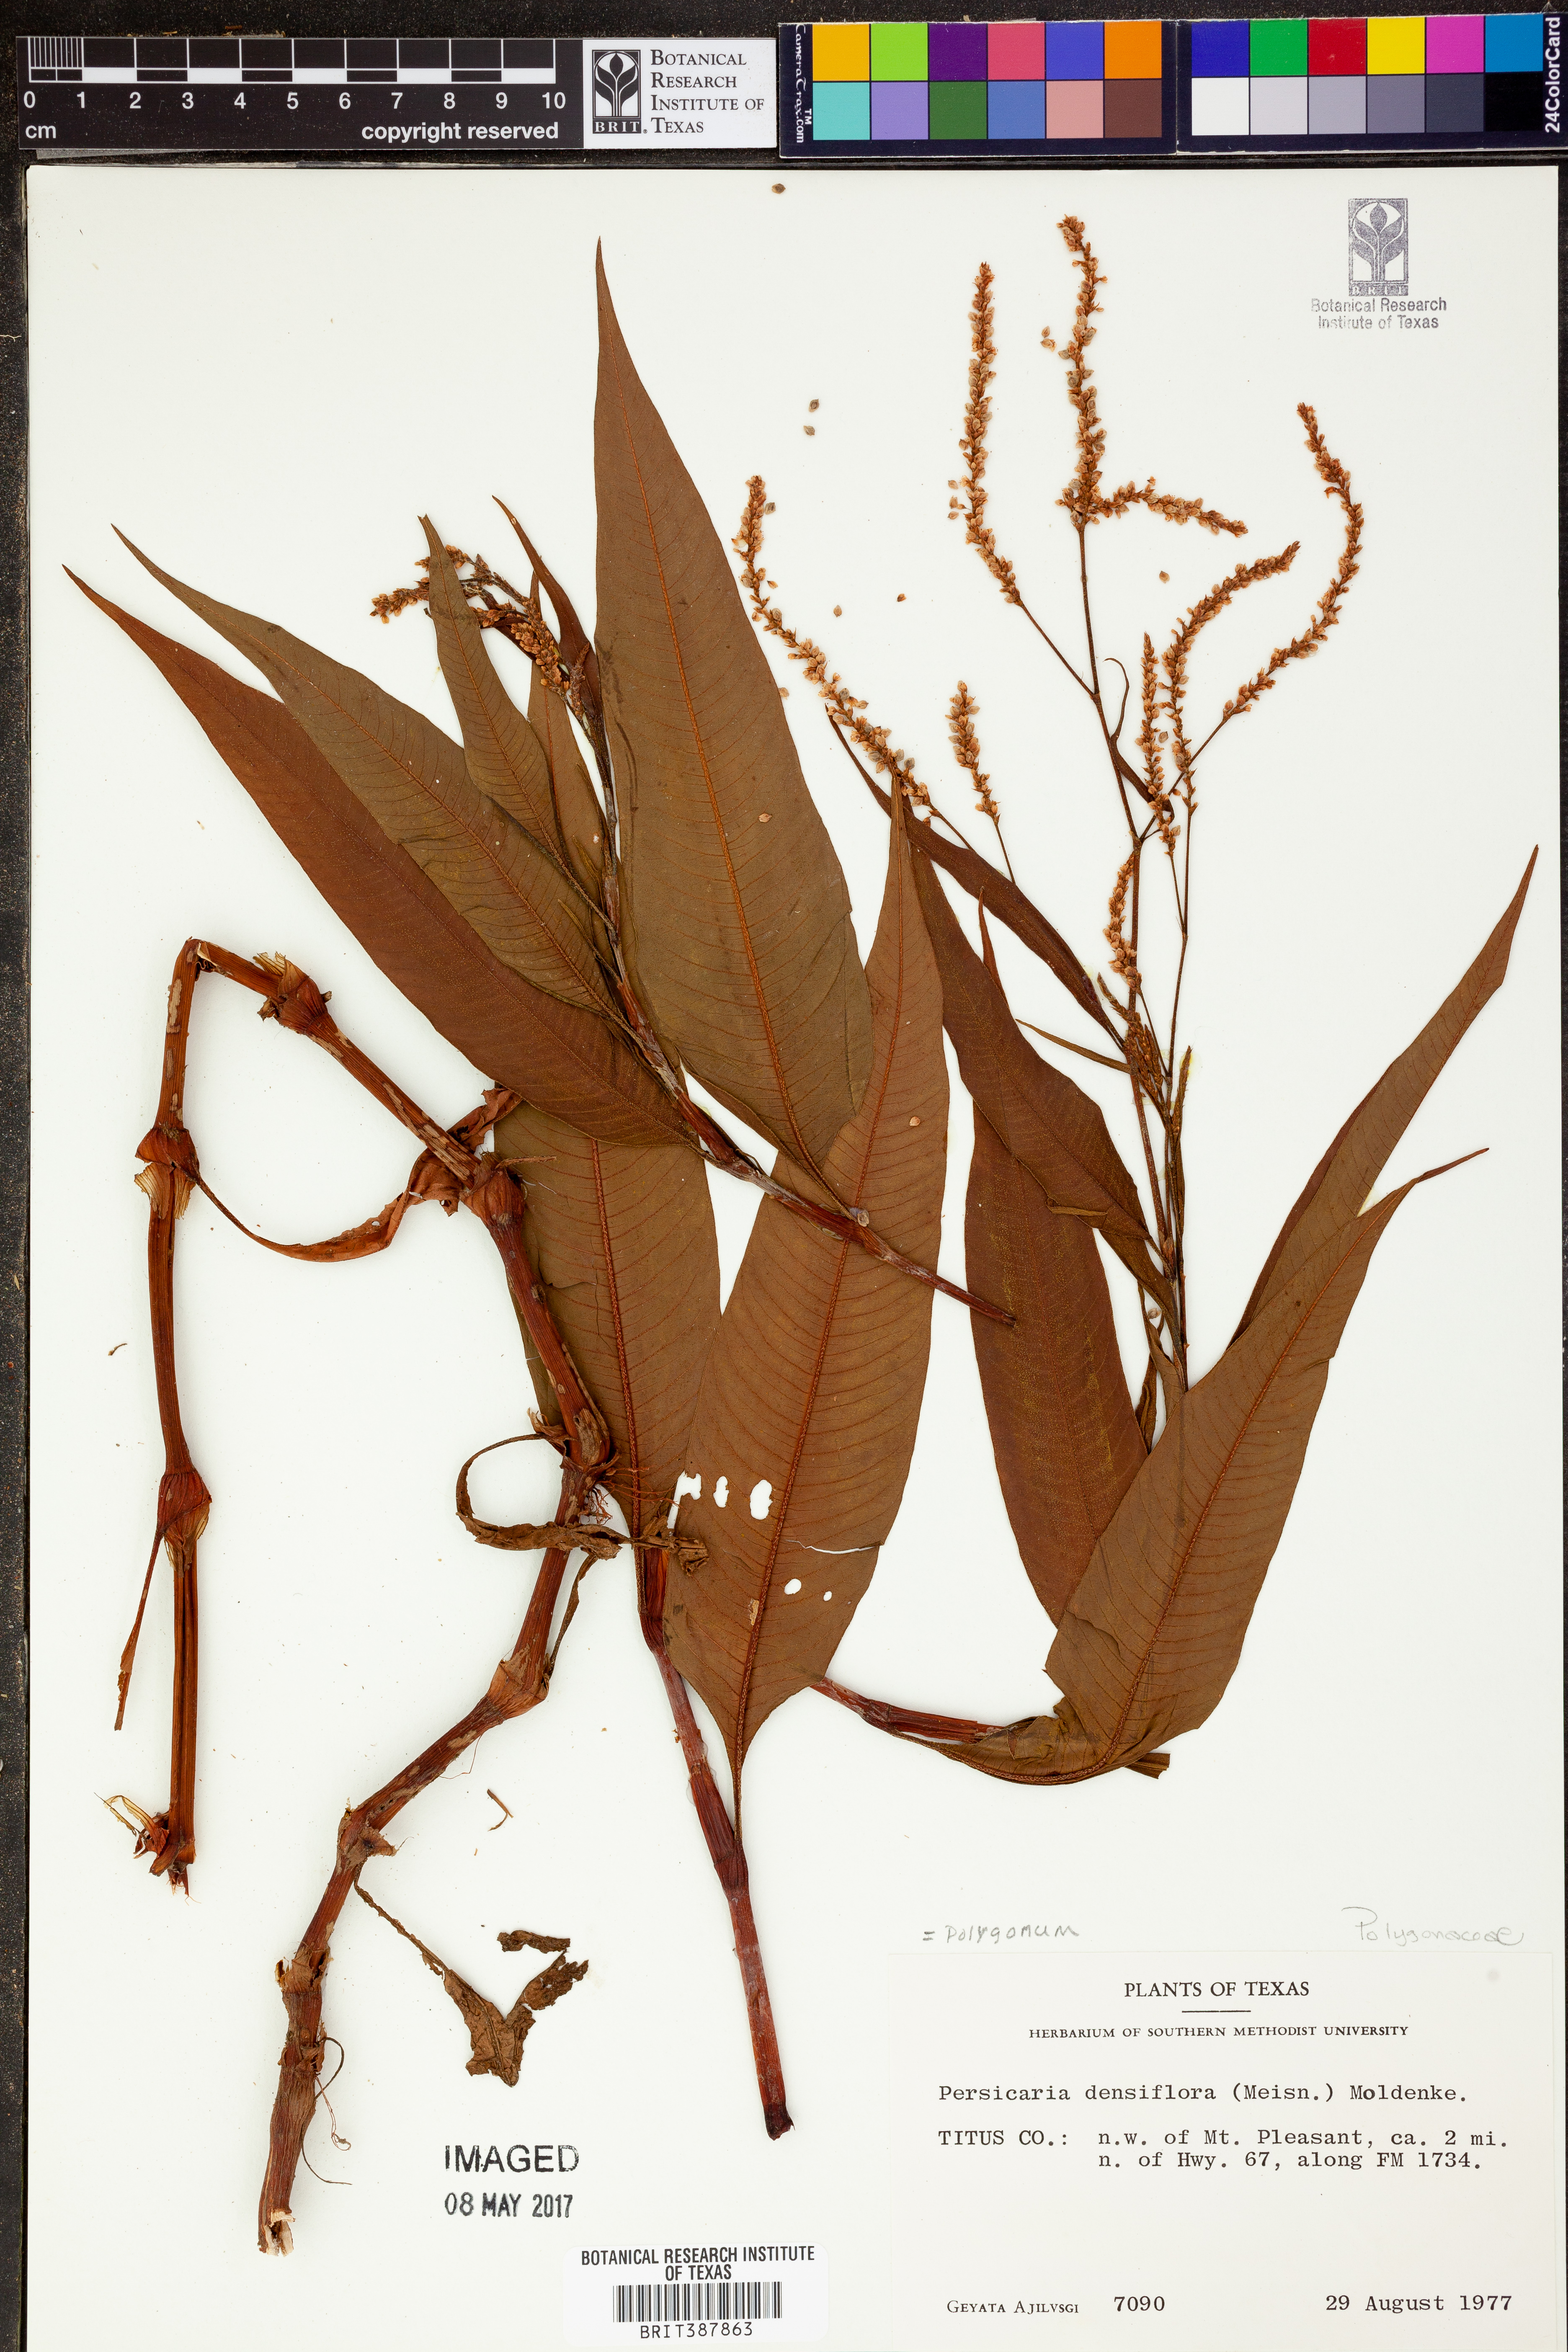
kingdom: Plantae
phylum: Tracheophyta
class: Magnoliopsida
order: Caryophyllales
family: Polygonaceae
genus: Persicaria
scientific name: Persicaria glabra
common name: Denseflower knotweed
